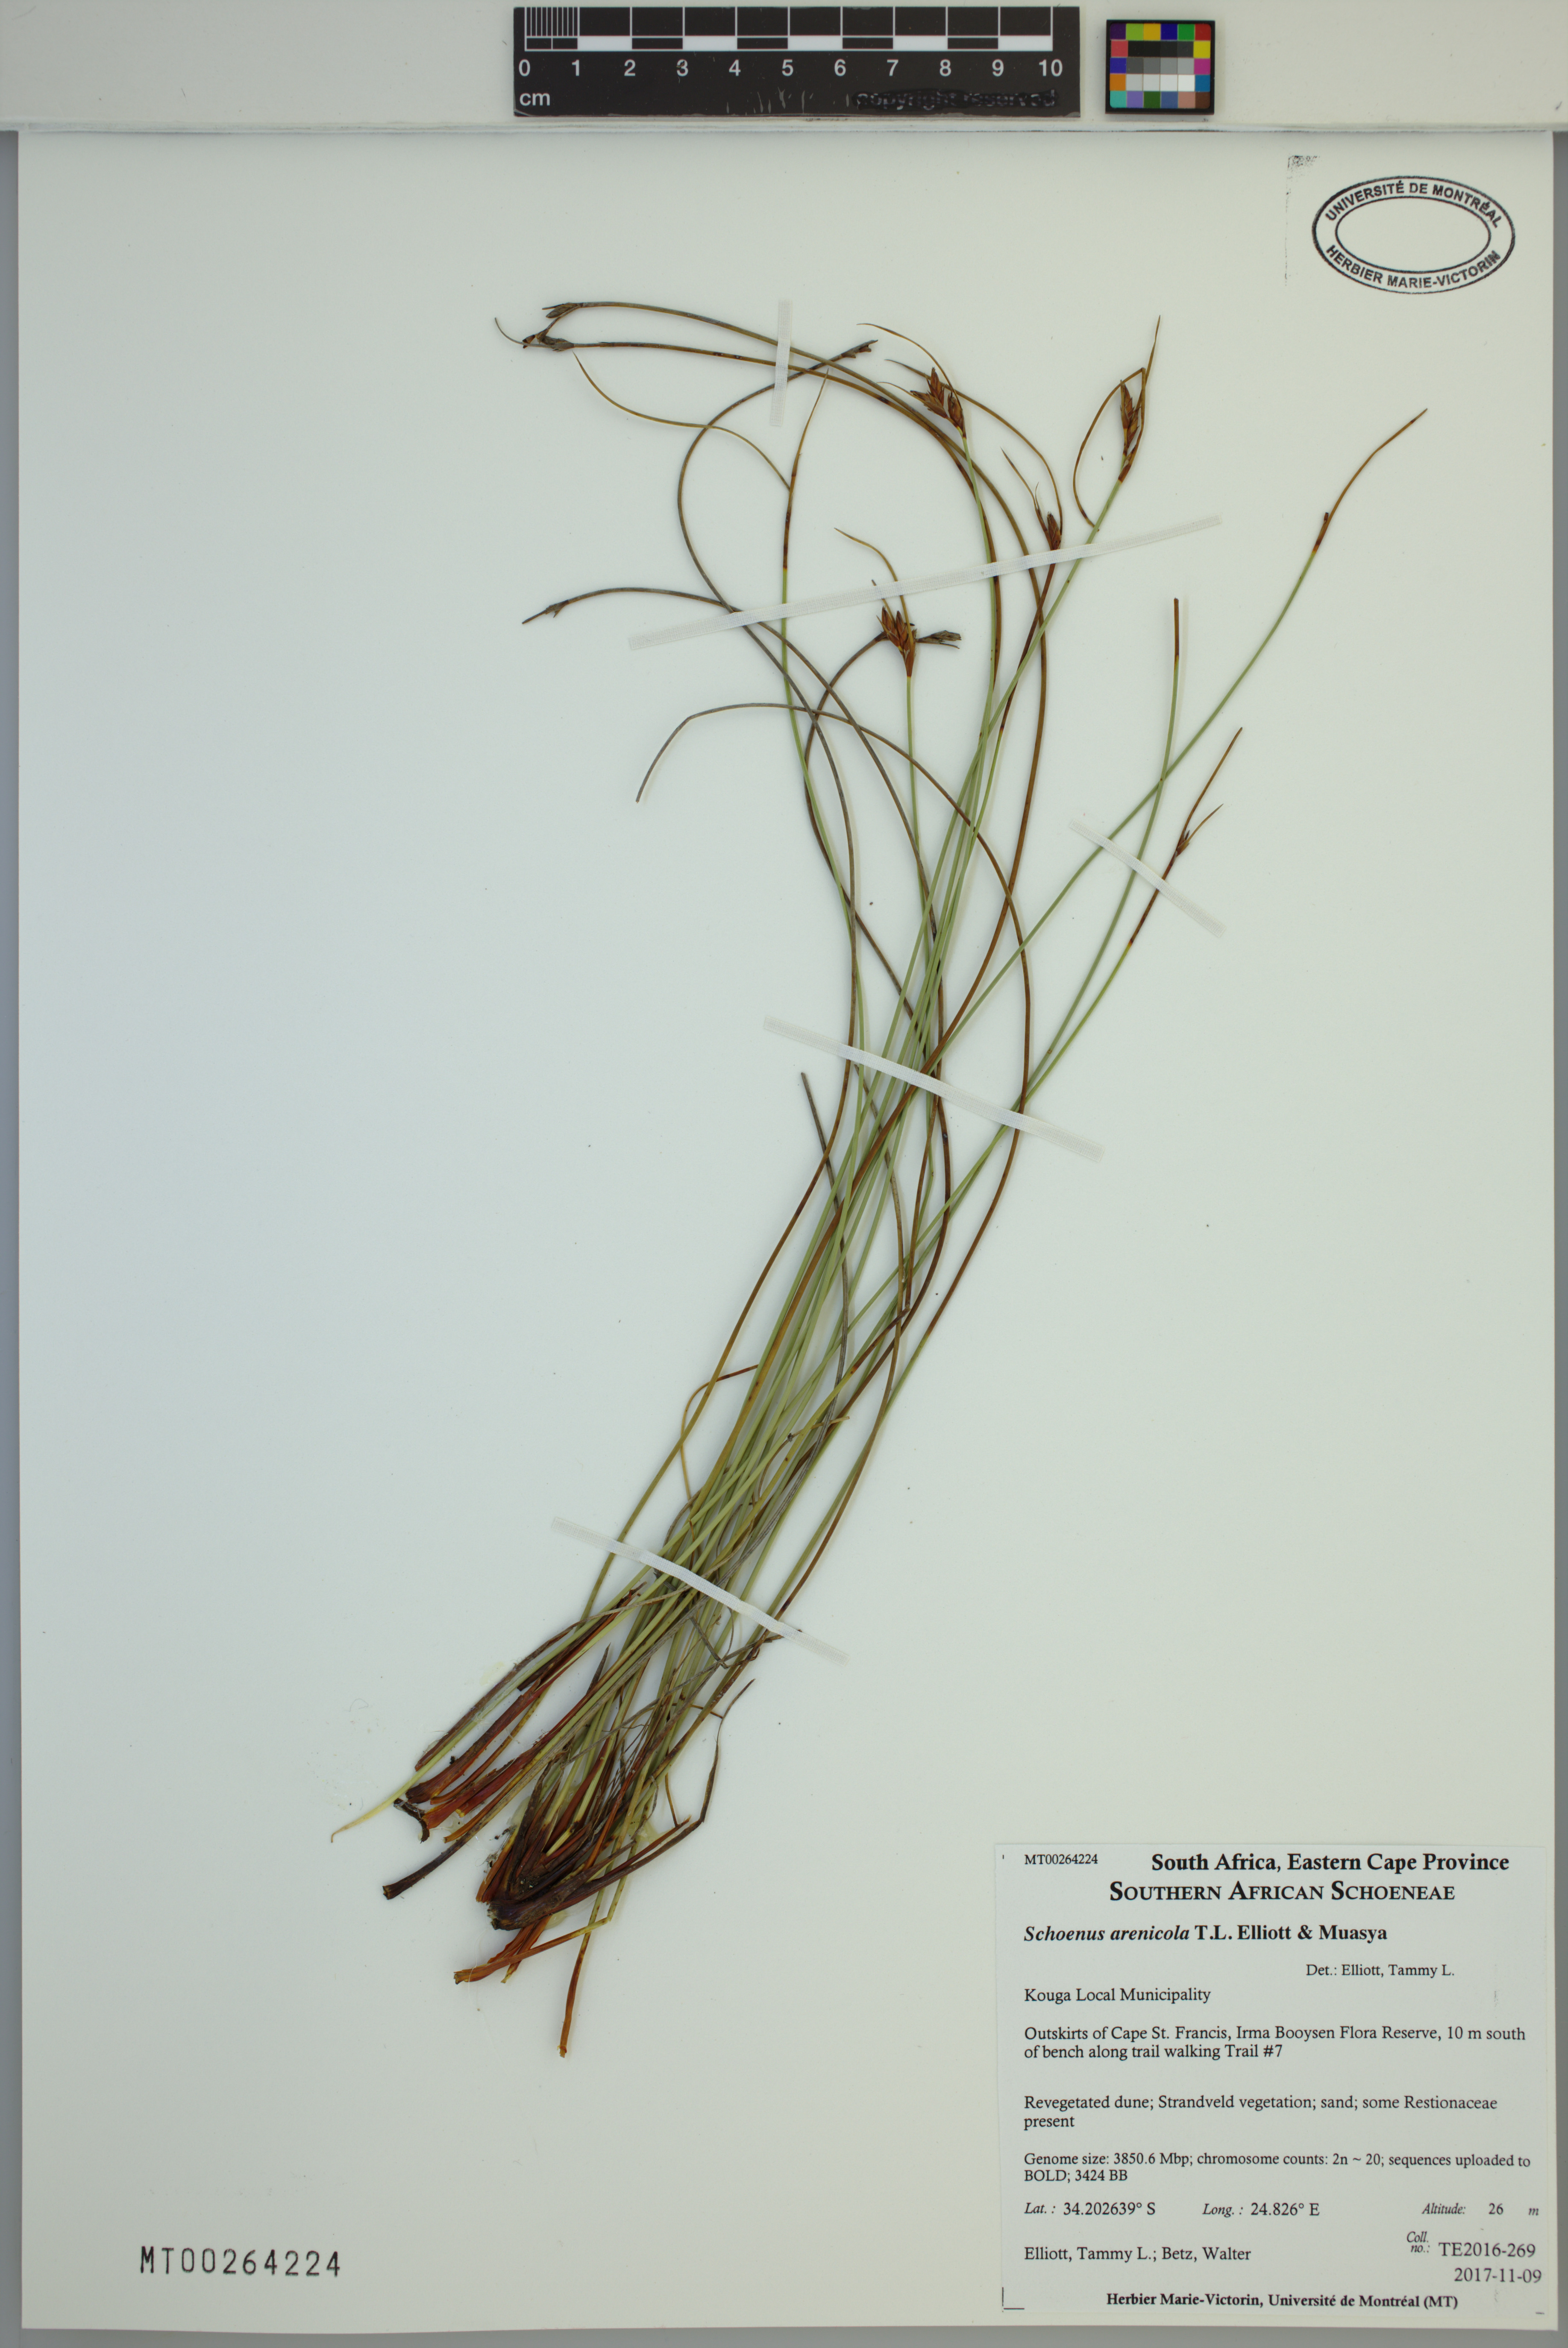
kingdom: Plantae
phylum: Tracheophyta
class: Liliopsida
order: Poales
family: Cyperaceae
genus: Schoenus
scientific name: Schoenus arenicola
